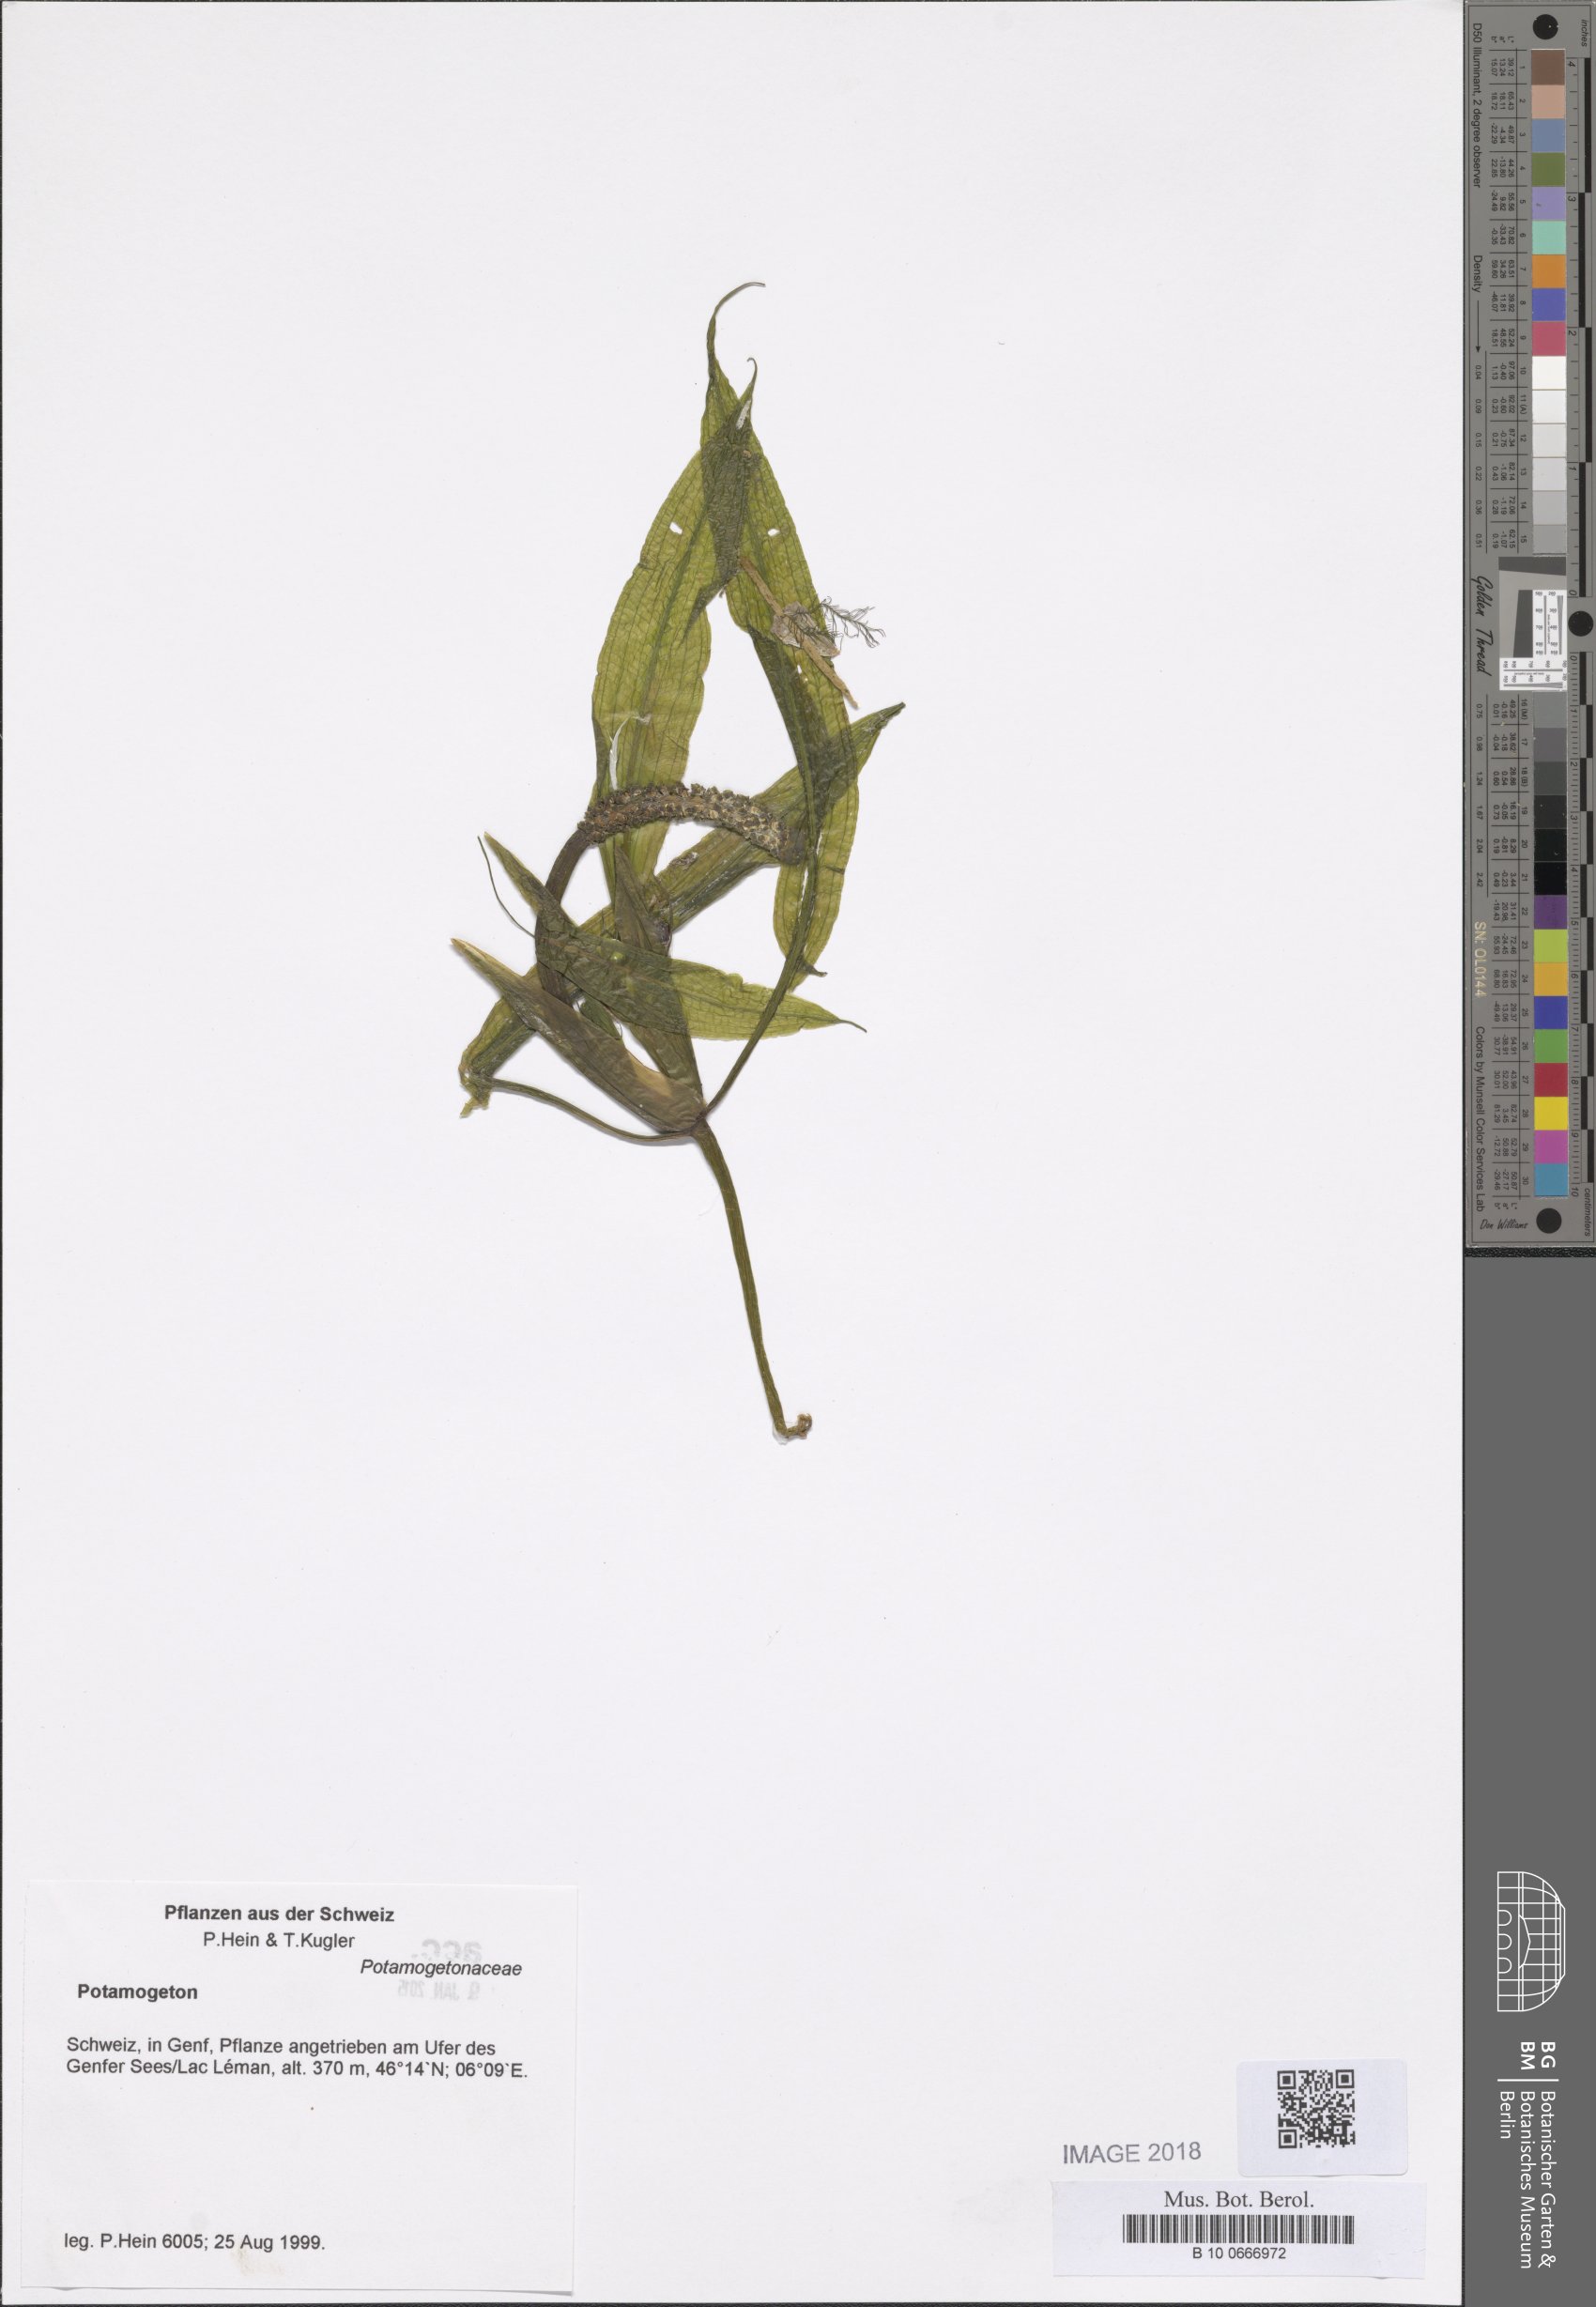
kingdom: Plantae
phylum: Tracheophyta
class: Liliopsida
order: Alismatales
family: Potamogetonaceae
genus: Potamogeton
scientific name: Potamogeton lucens
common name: Shining pondweed
